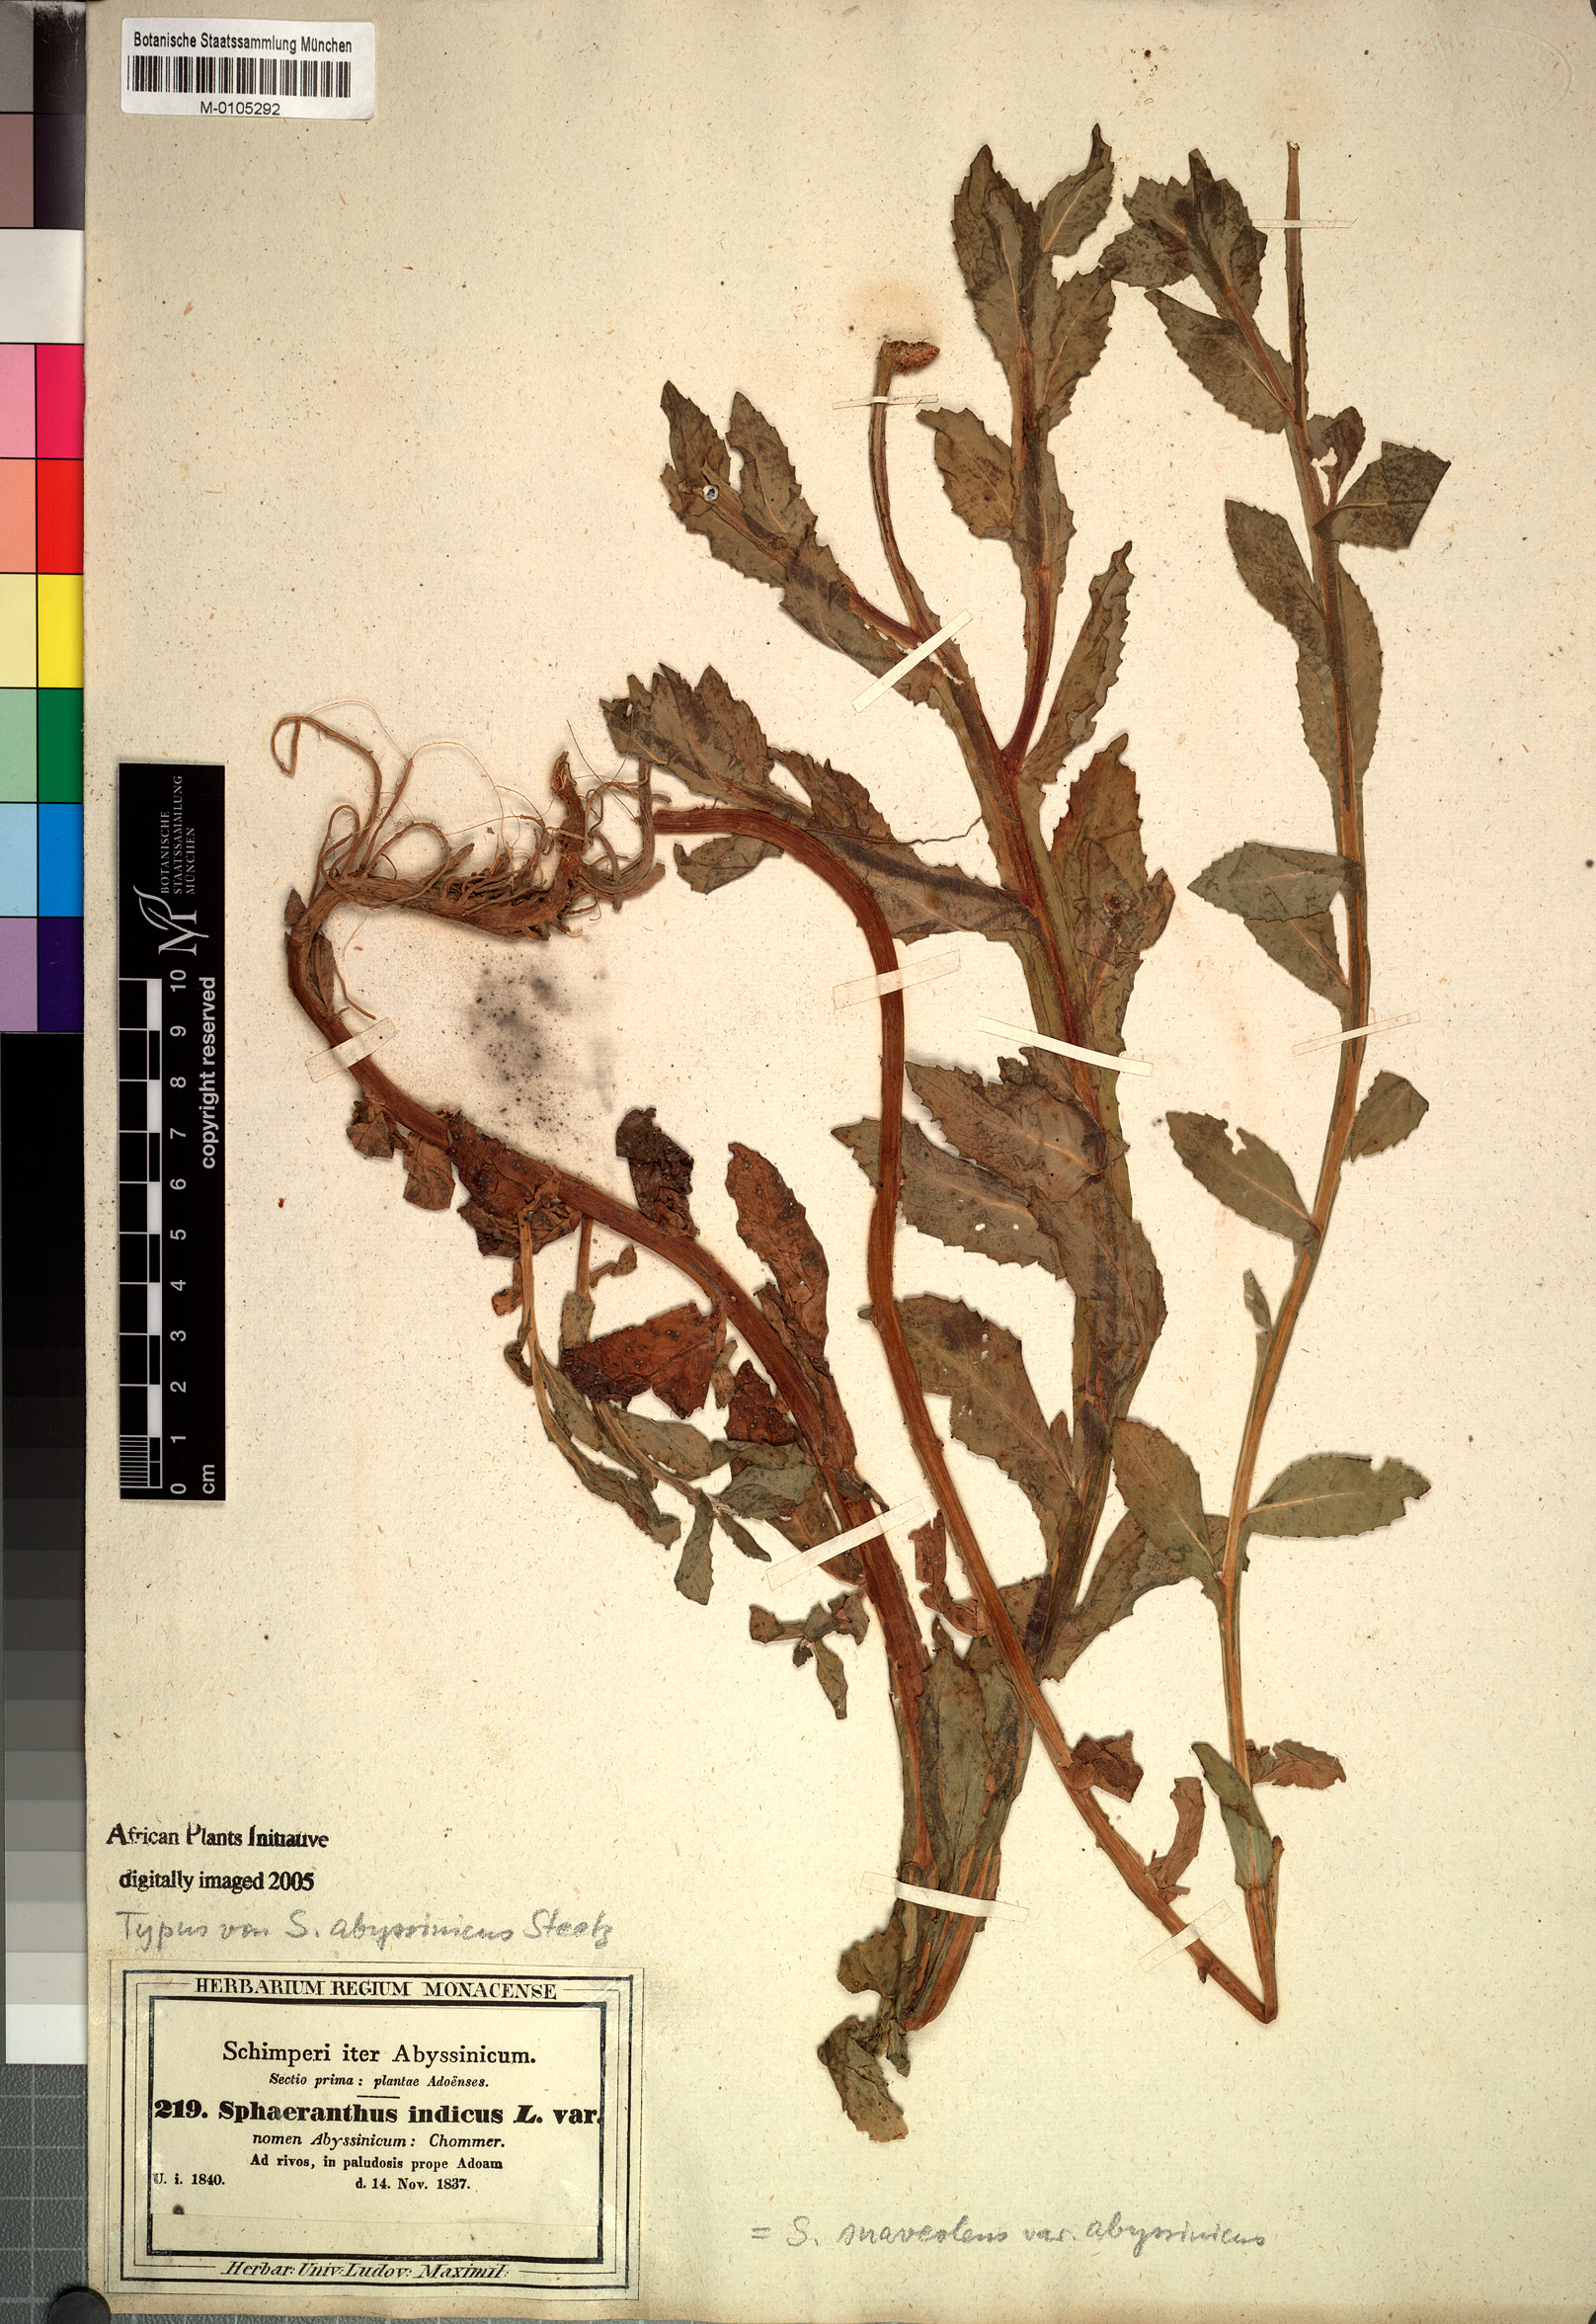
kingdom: Plantae
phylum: Tracheophyta
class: Magnoliopsida
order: Asterales
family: Asteraceae
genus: Sphaeranthus
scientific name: Sphaeranthus suaveolens
